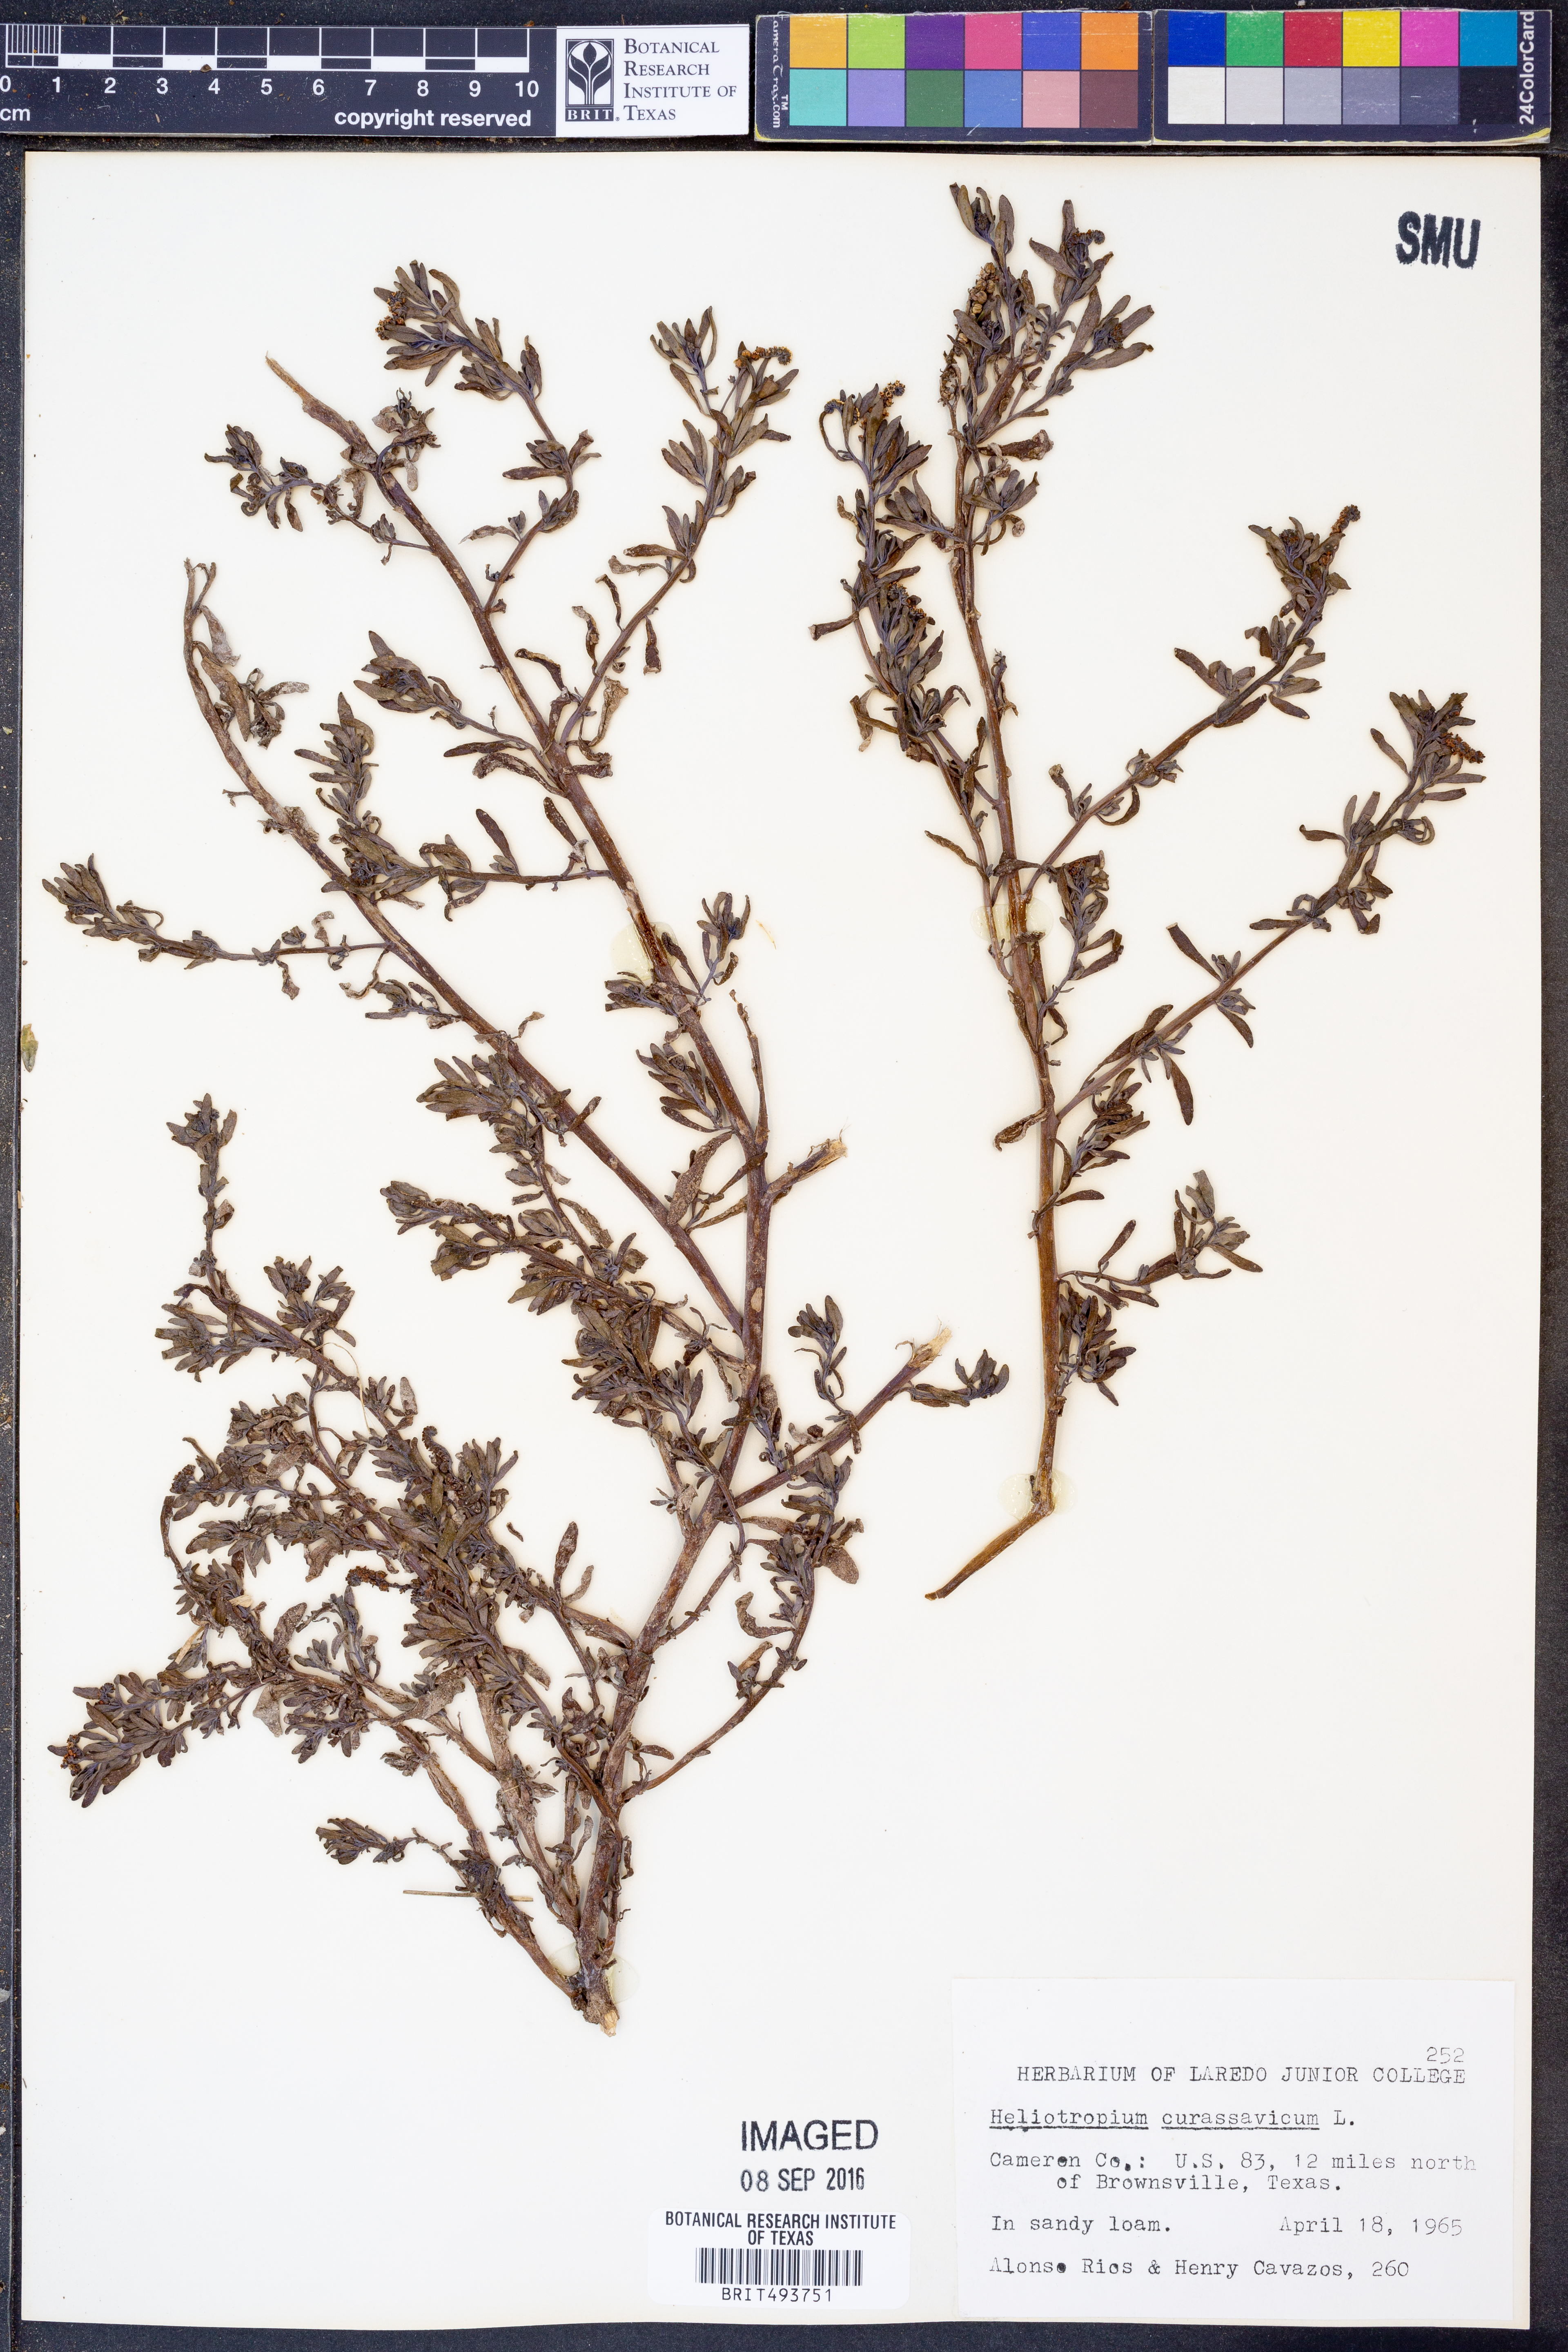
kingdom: Plantae
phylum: Tracheophyta
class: Magnoliopsida
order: Boraginales
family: Heliotropiaceae
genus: Heliotropium
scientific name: Heliotropium curassavicum
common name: Seaside heliotrope
